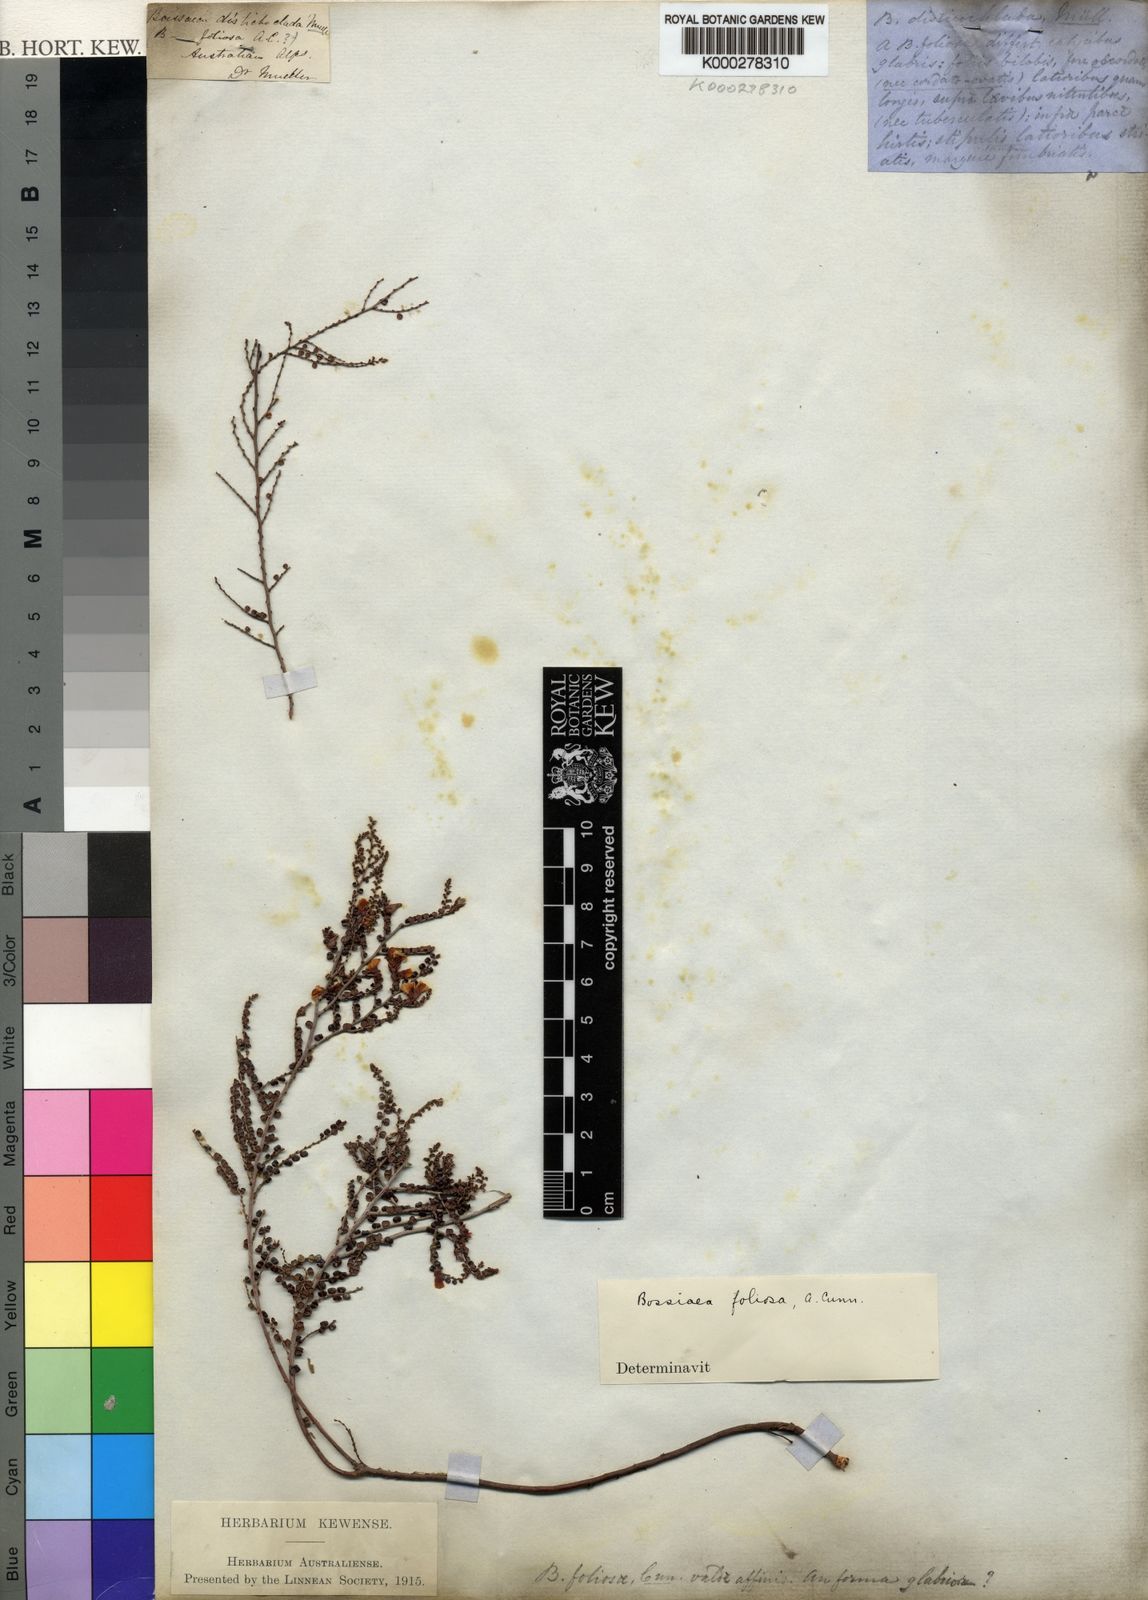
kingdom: Plantae
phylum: Tracheophyta
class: Magnoliopsida
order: Fabales
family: Fabaceae
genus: Bossiaea
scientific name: Bossiaea foliosa
